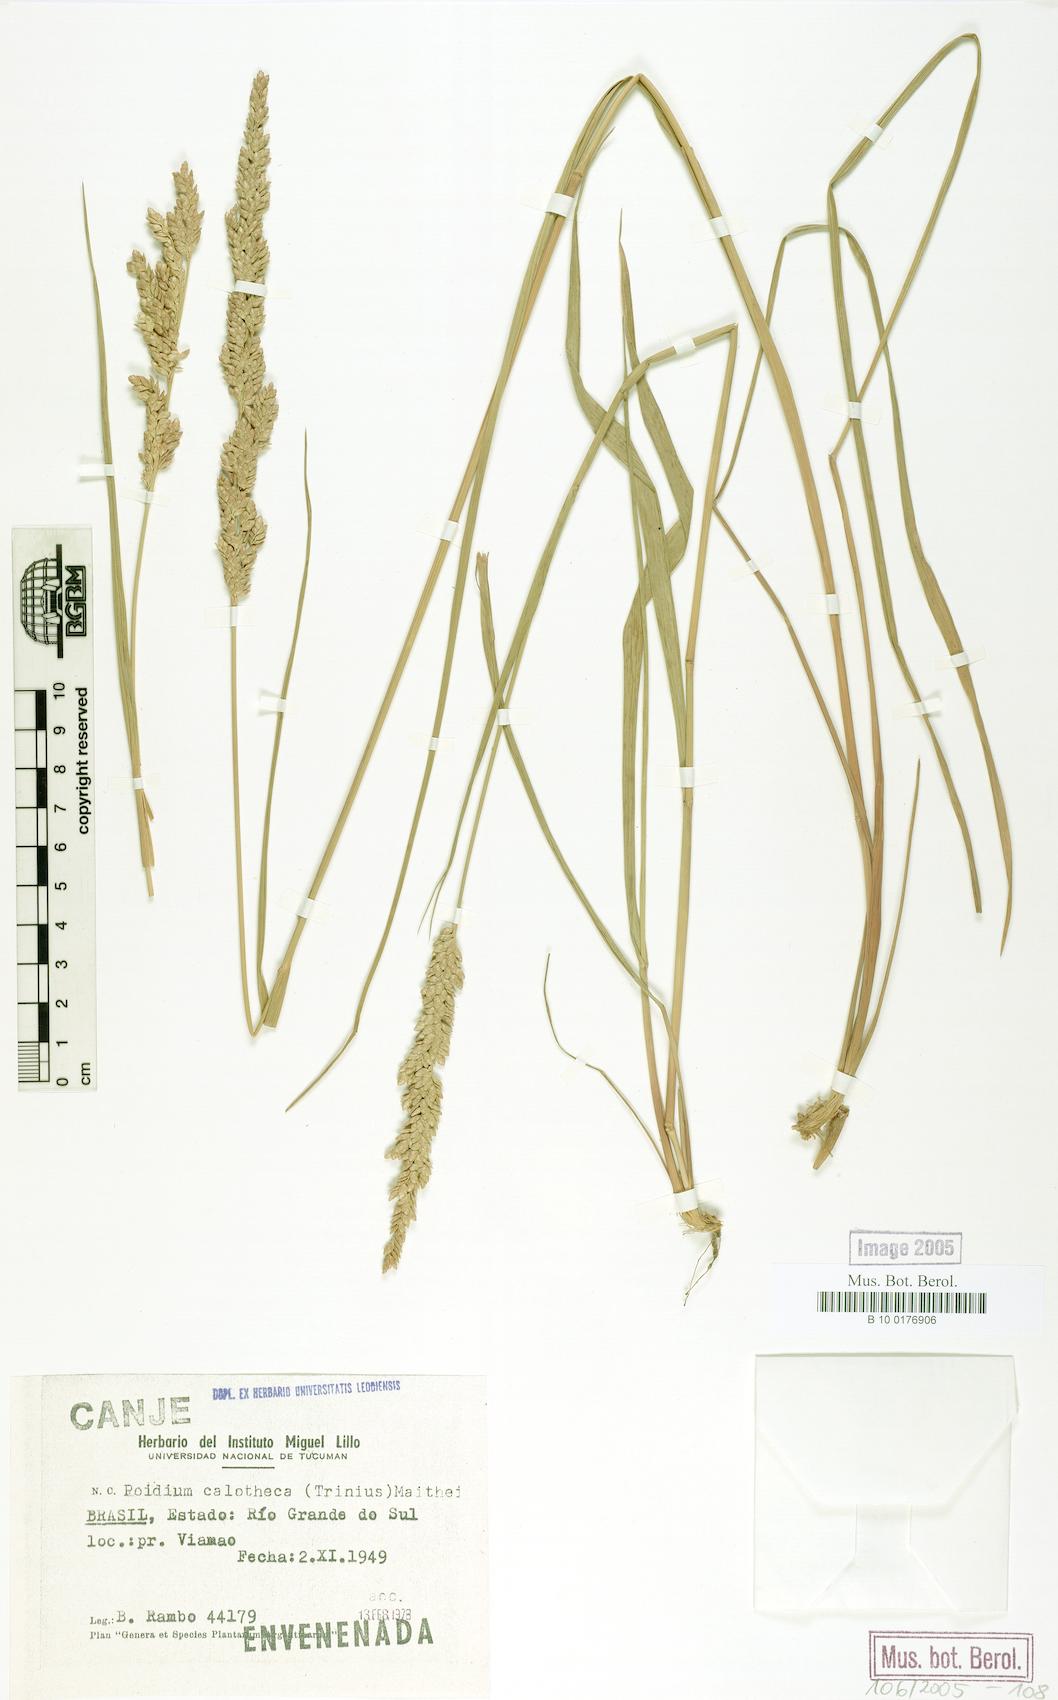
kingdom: Plantae
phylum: Tracheophyta
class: Liliopsida
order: Poales
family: Poaceae
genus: Poidium
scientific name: Poidium calotheca
